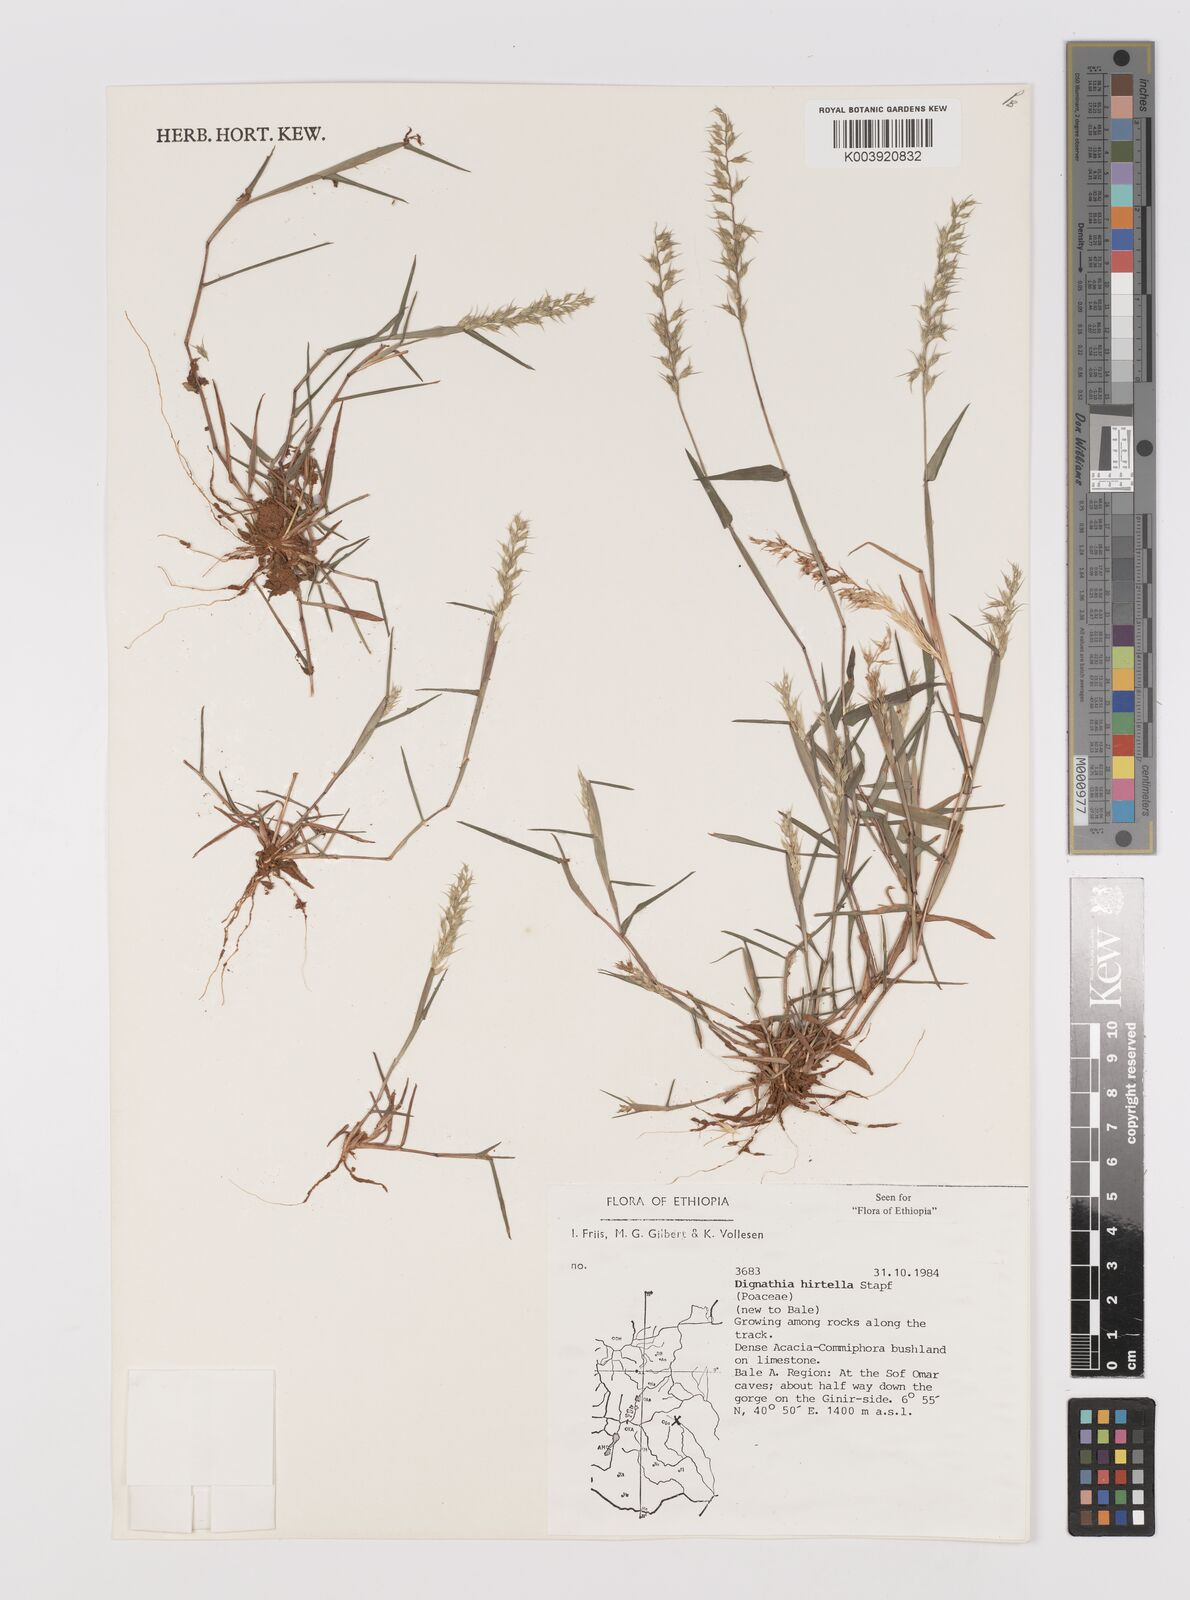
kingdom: Plantae
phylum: Tracheophyta
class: Liliopsida
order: Poales
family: Poaceae
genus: Dignathia
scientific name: Dignathia hirtella
